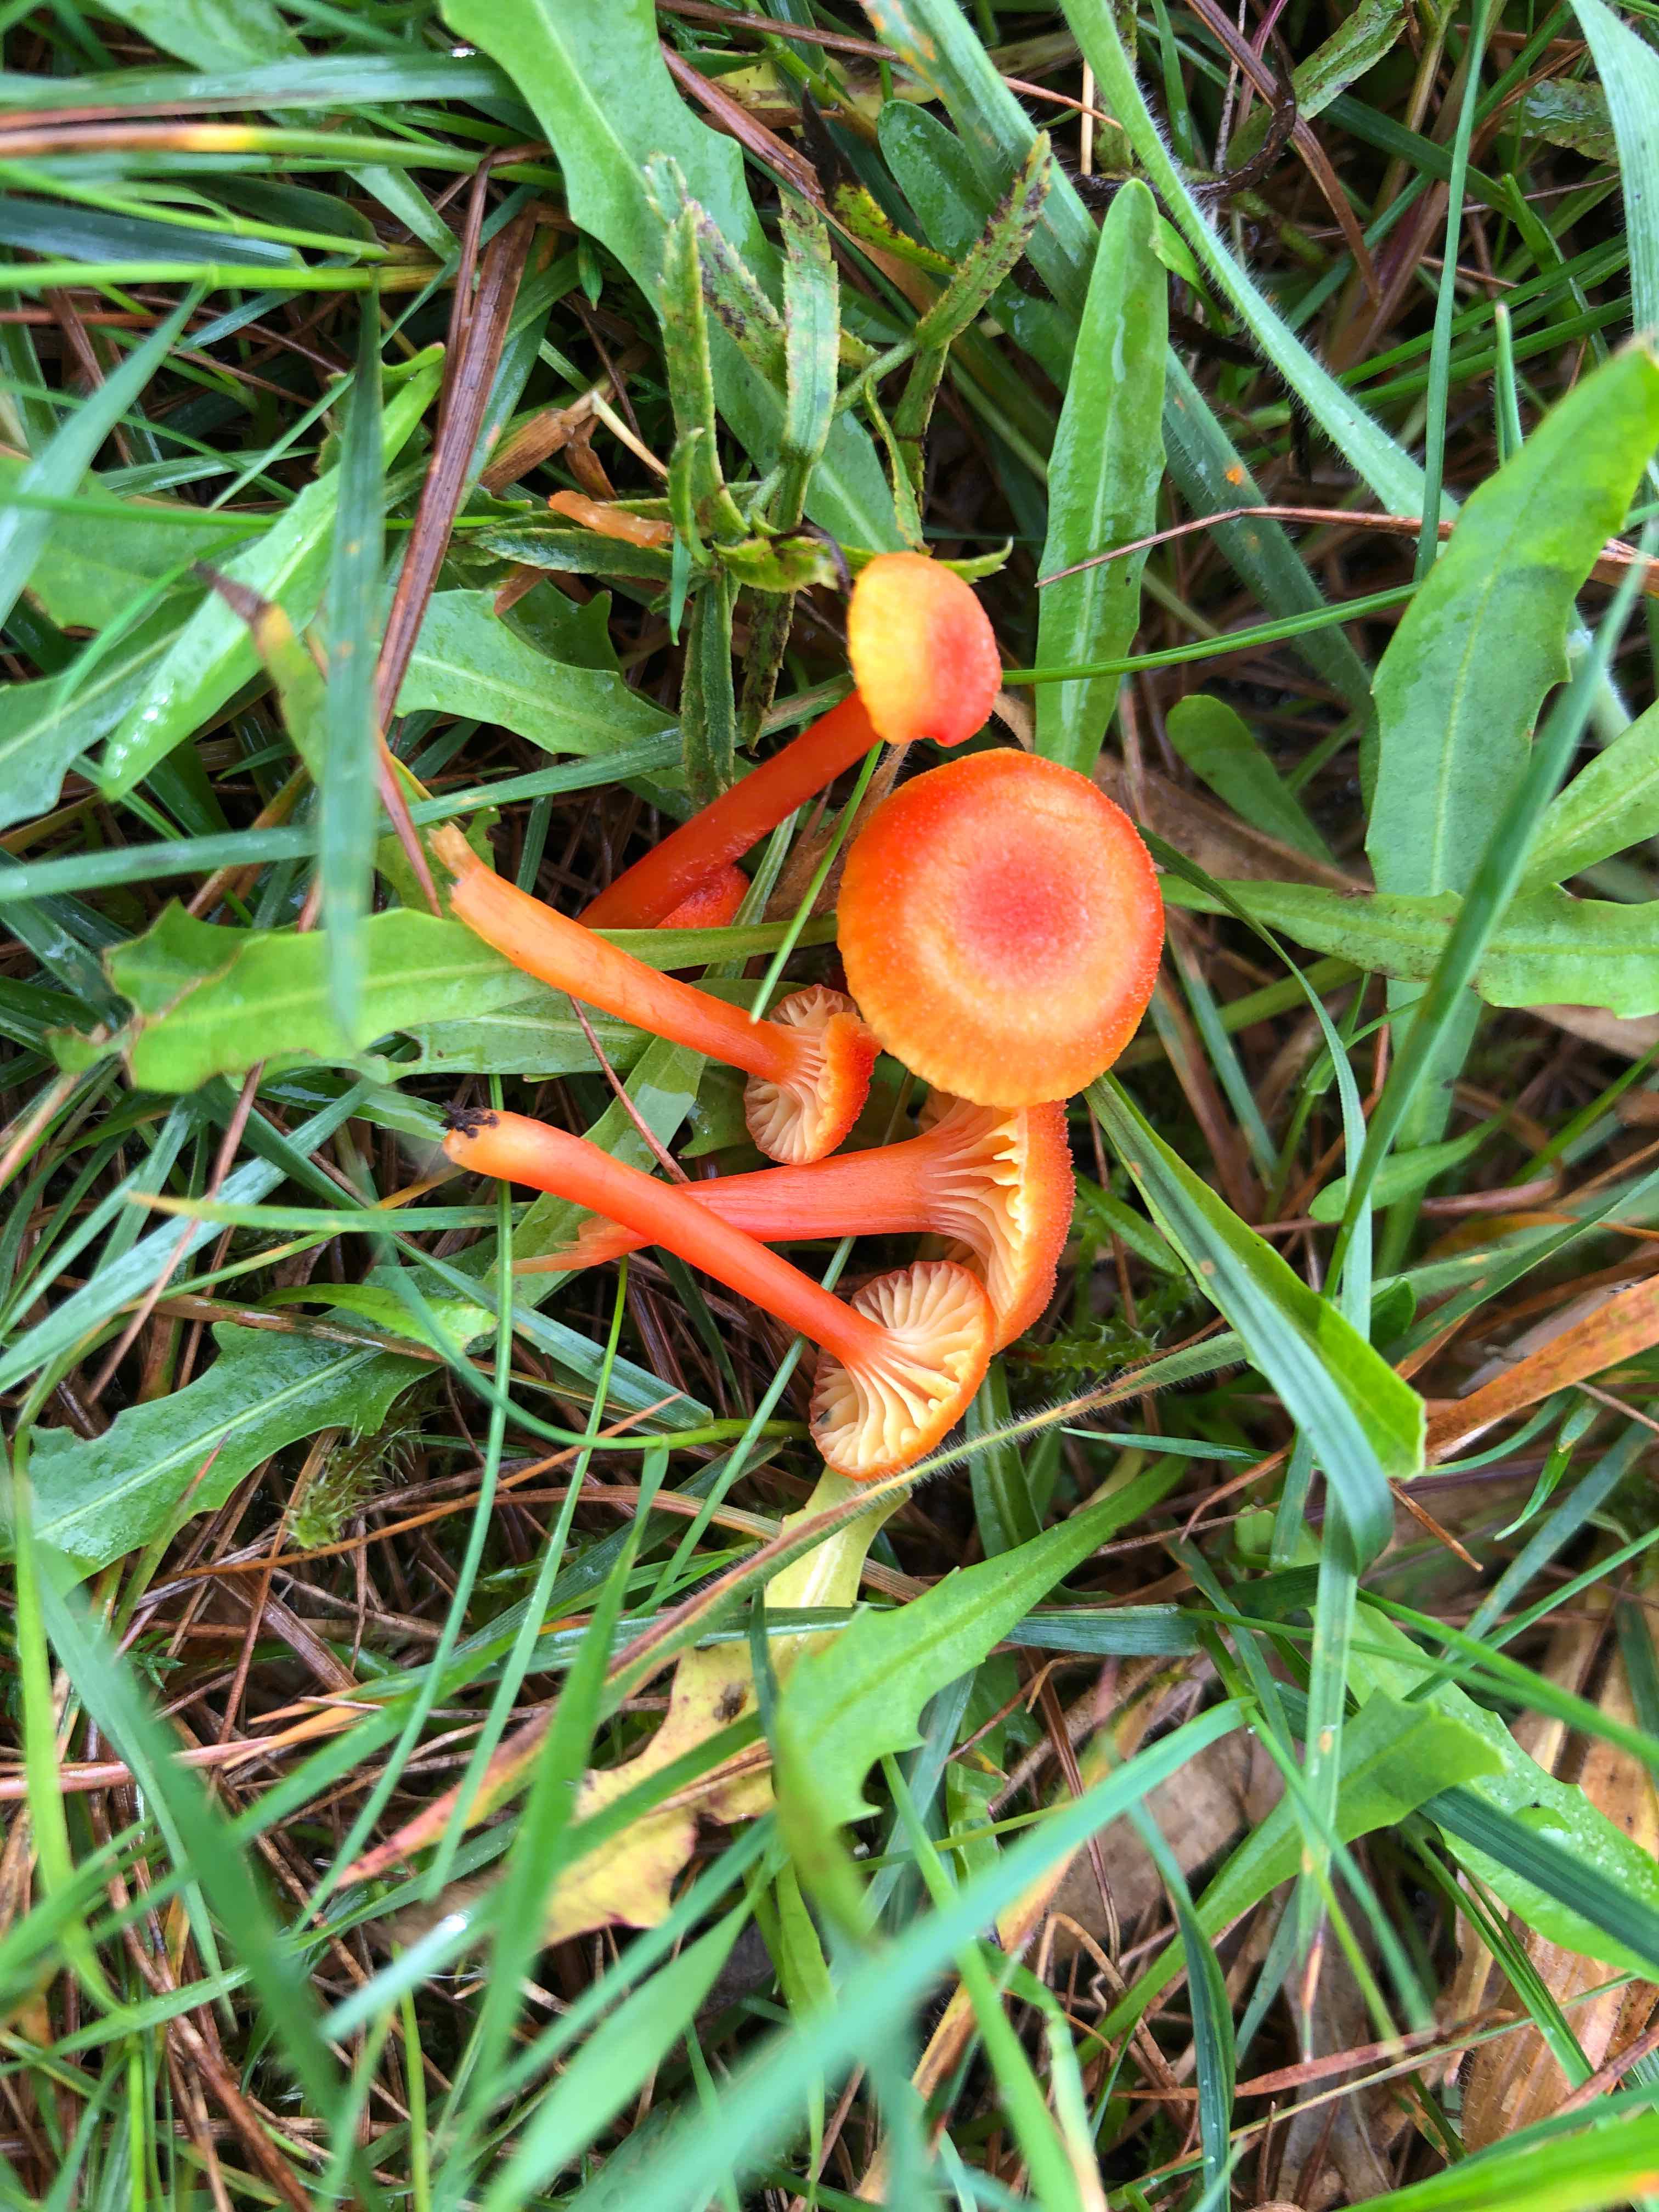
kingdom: Fungi
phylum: Basidiomycota
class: Agaricomycetes
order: Agaricales
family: Hygrophoraceae
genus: Hygrocybe
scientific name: Hygrocybe cantharellus
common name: kantarel-vokshat
